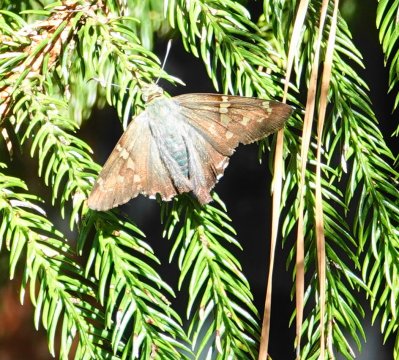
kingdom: Animalia
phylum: Arthropoda
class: Insecta
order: Lepidoptera
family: Hesperiidae
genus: Urbanus
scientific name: Urbanus proteus
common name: Long-tailed Skipper
